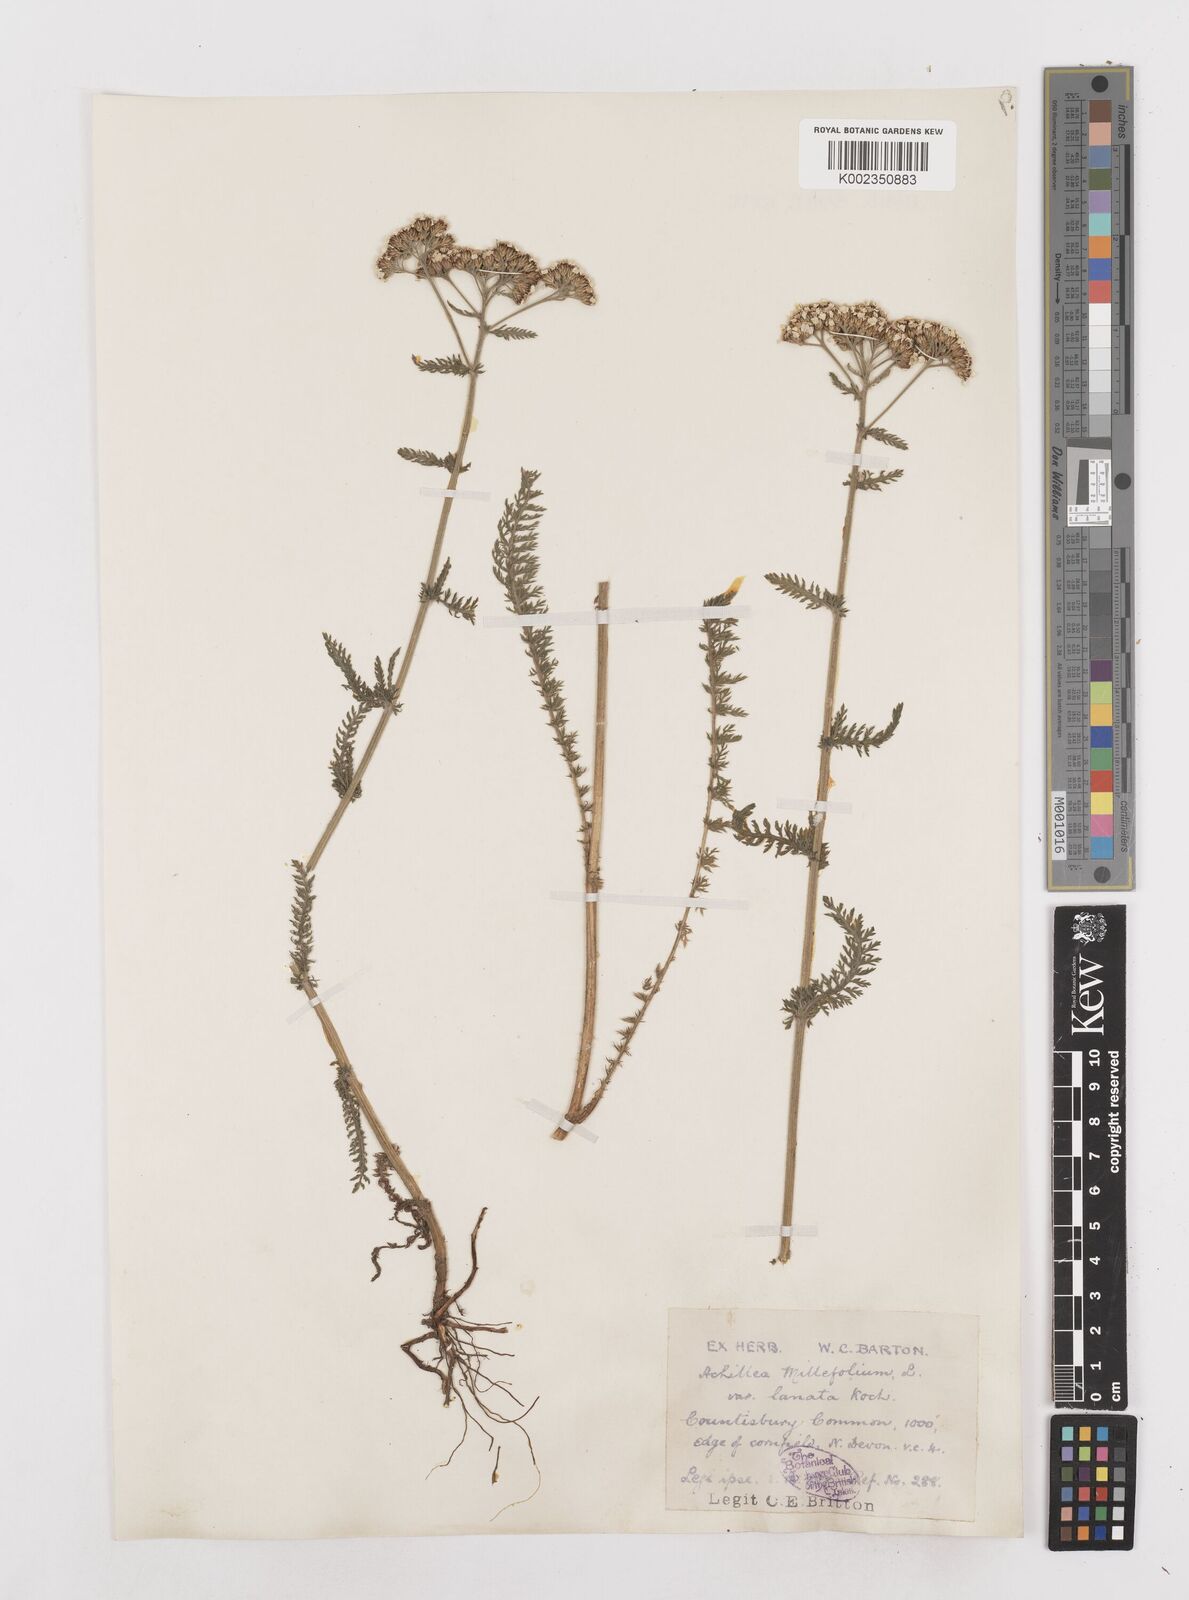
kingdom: Plantae
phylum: Tracheophyta
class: Magnoliopsida
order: Asterales
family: Asteraceae
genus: Achillea
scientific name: Achillea millefolium
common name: Yarrow
